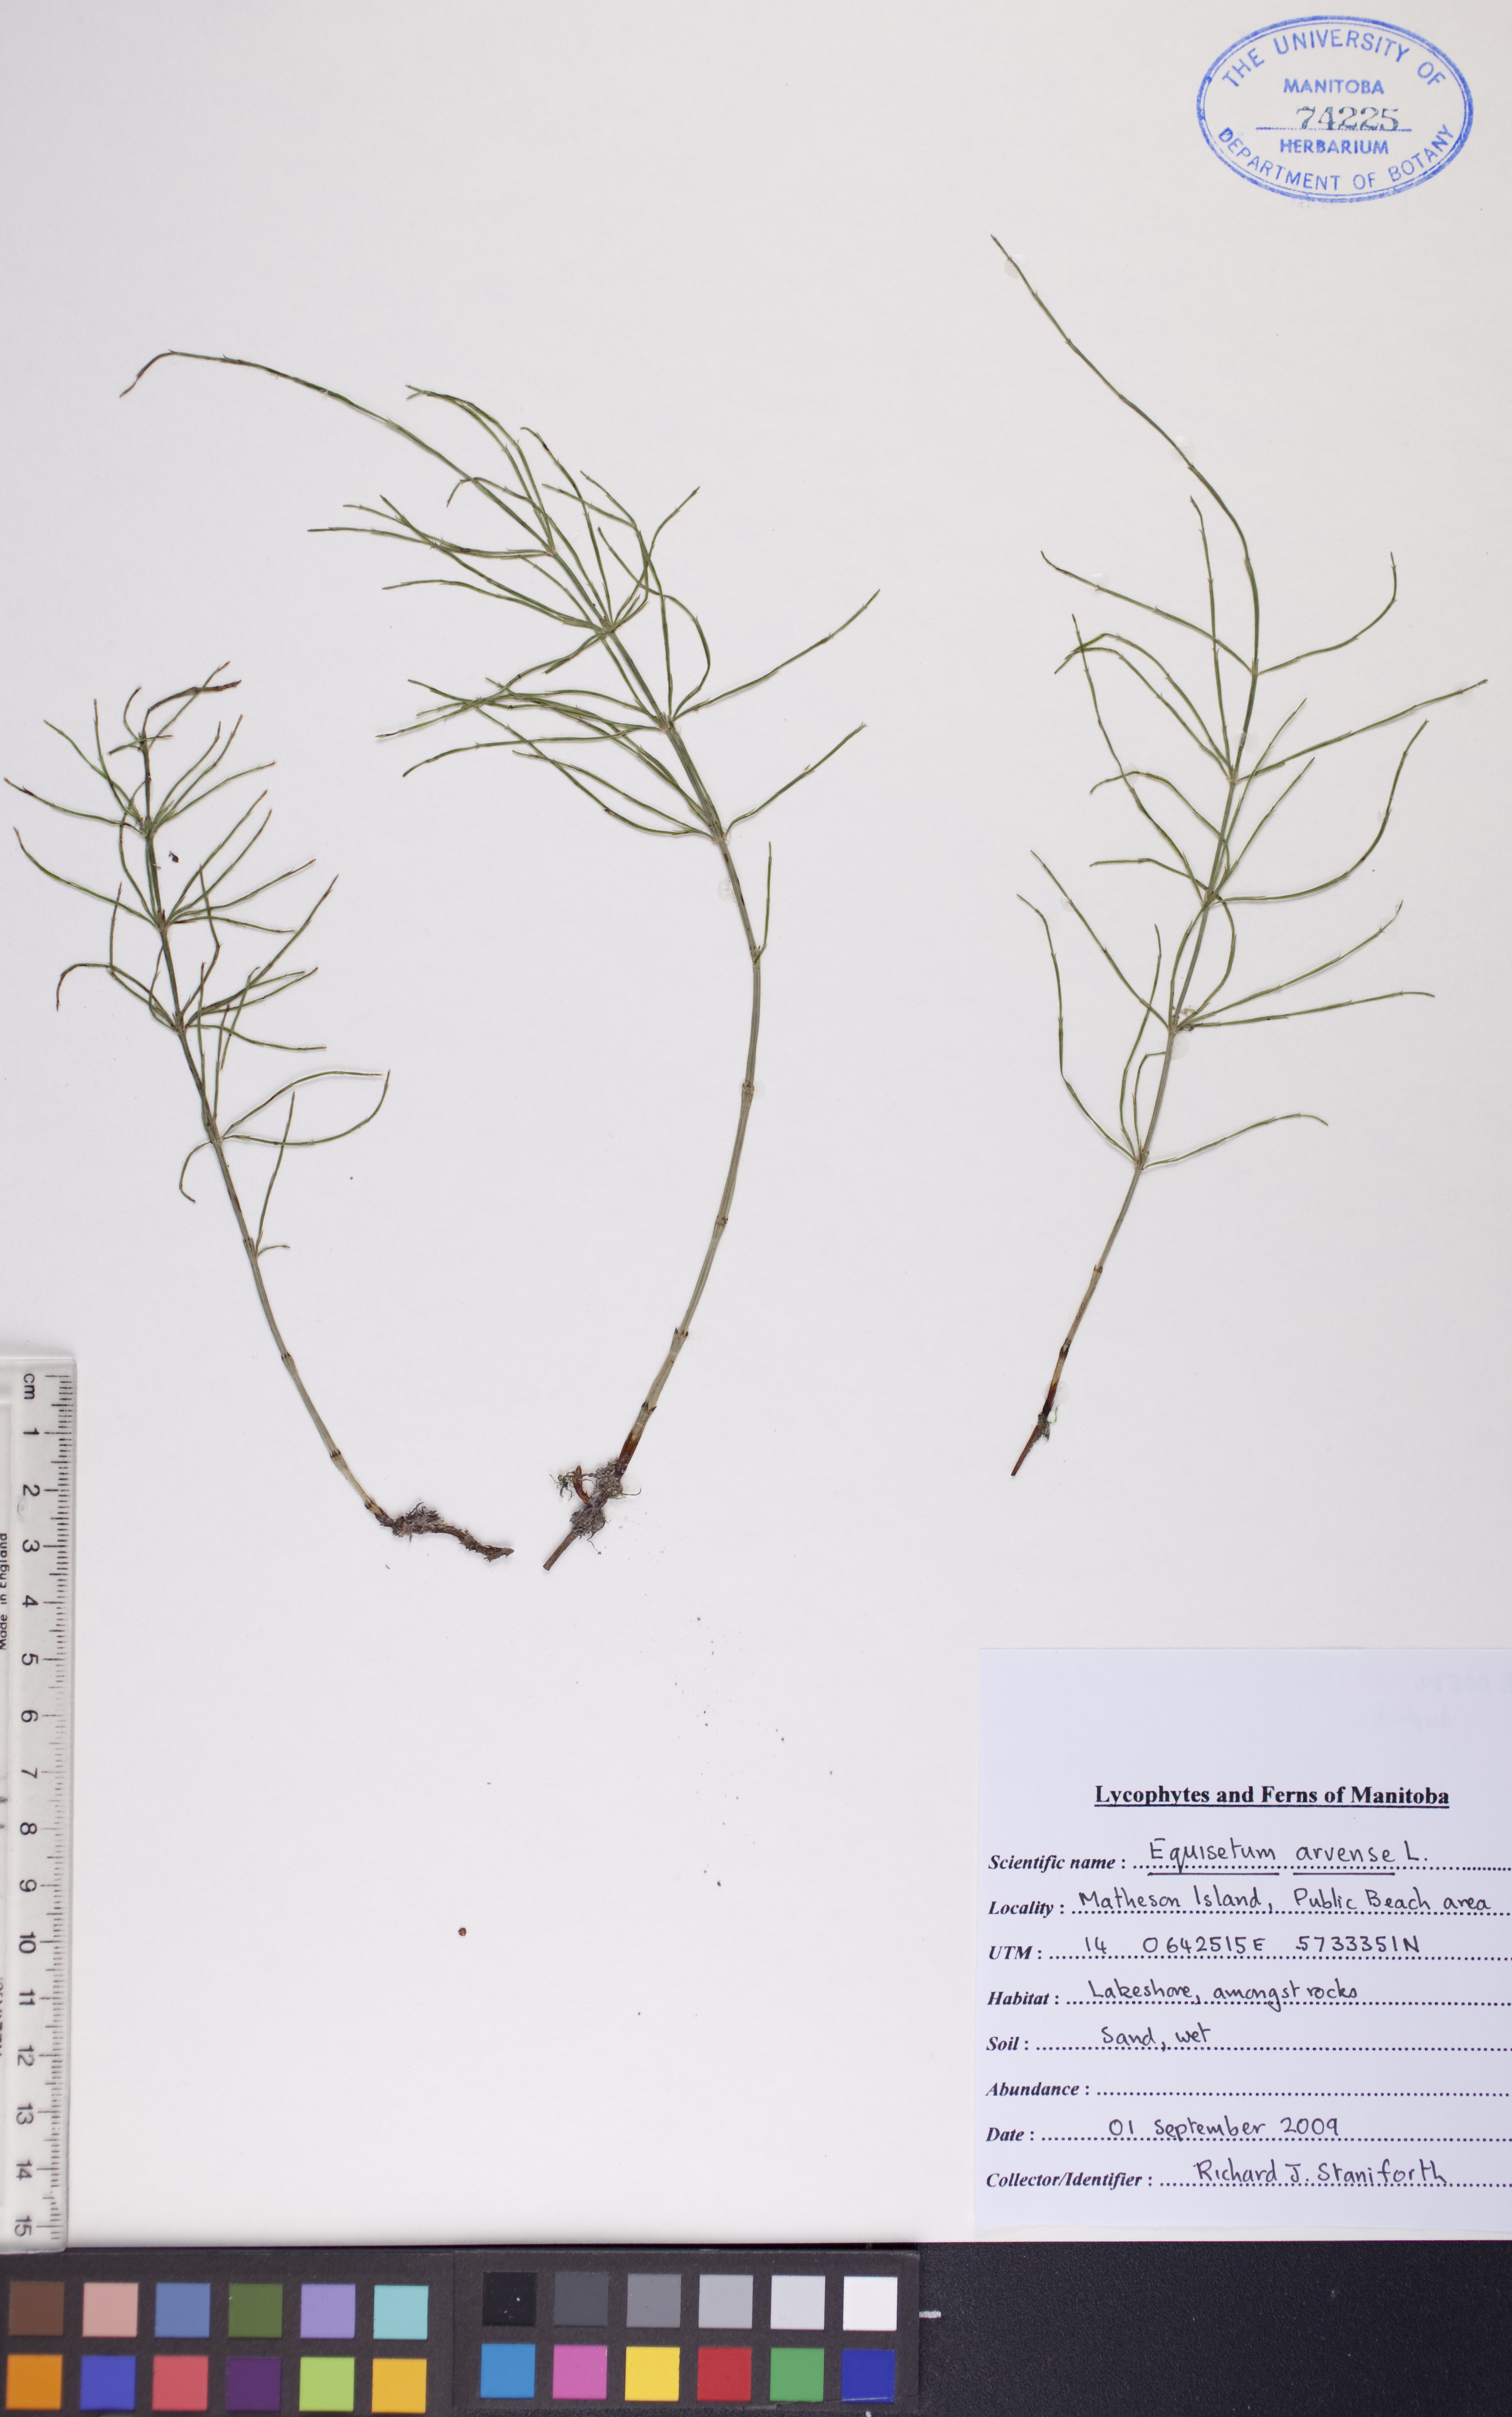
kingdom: Plantae
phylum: Tracheophyta
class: Polypodiopsida
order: Equisetales
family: Equisetaceae
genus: Equisetum
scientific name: Equisetum arvense
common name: Field horsetail
